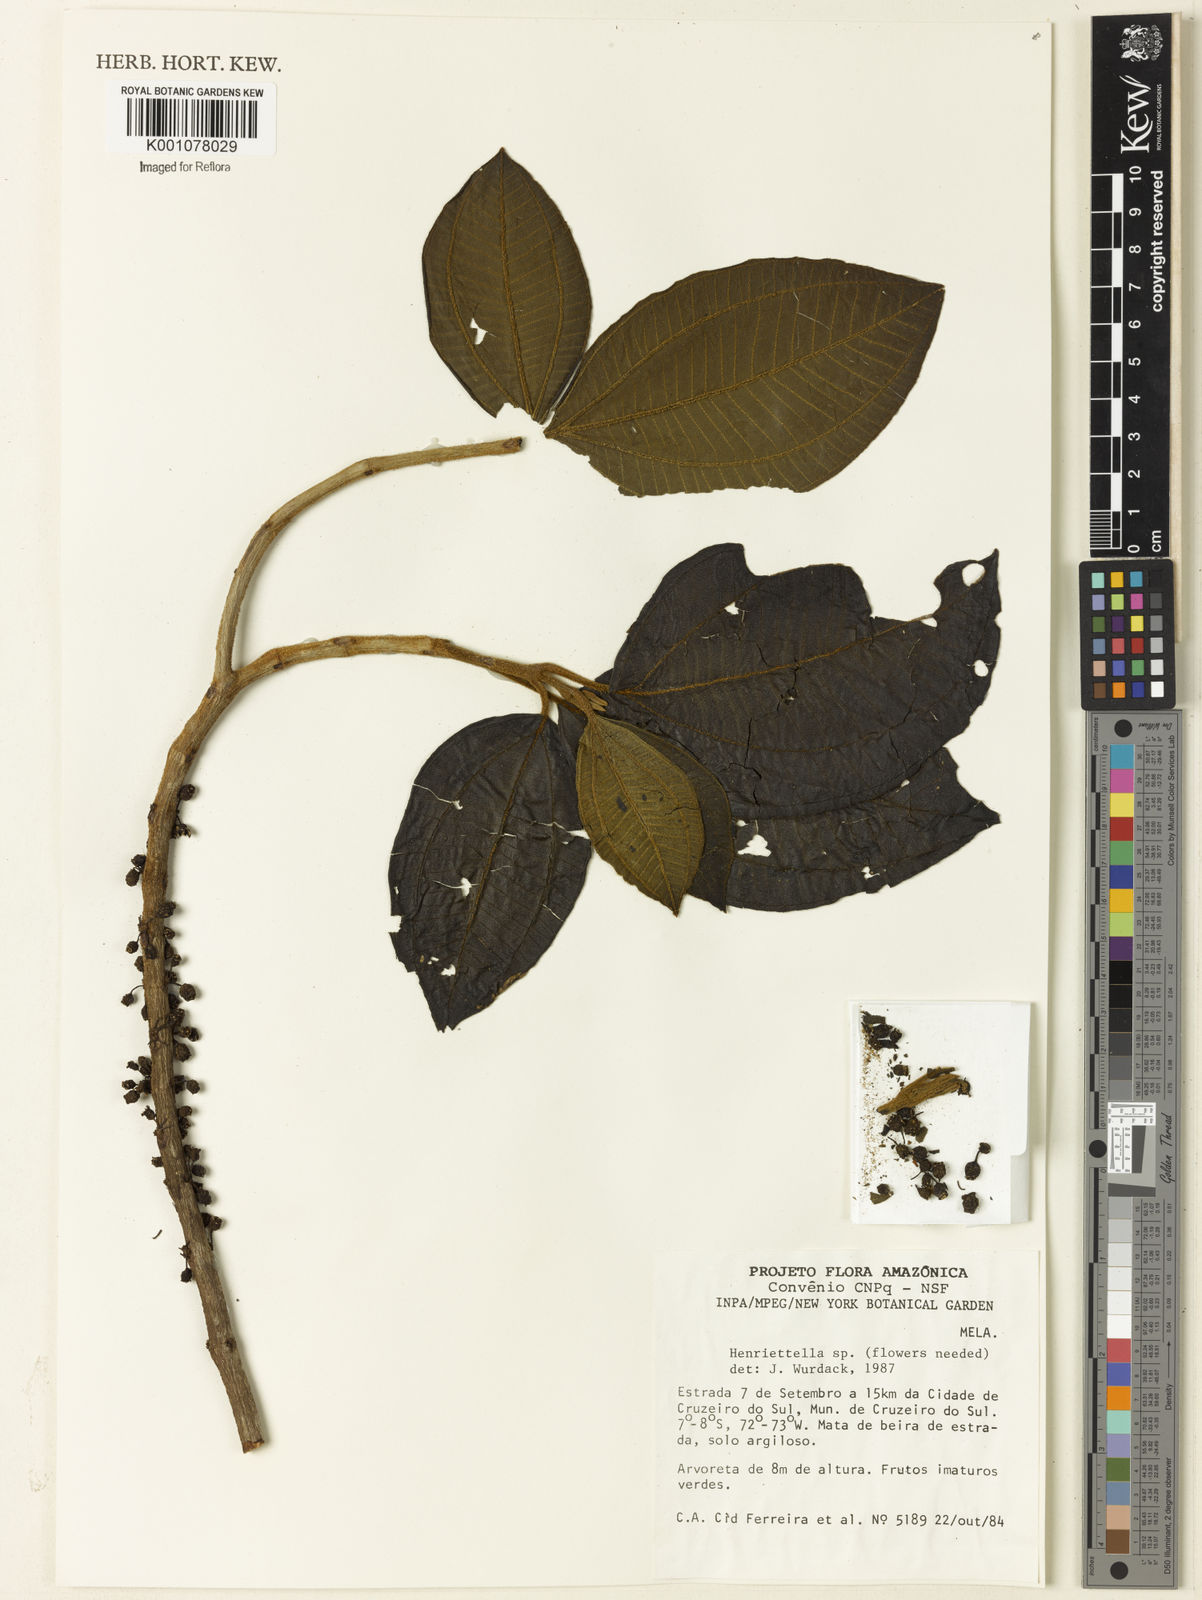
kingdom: Plantae
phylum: Tracheophyta
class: Magnoliopsida
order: Myrtales
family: Melastomataceae
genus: Henriettea
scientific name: Henriettea
